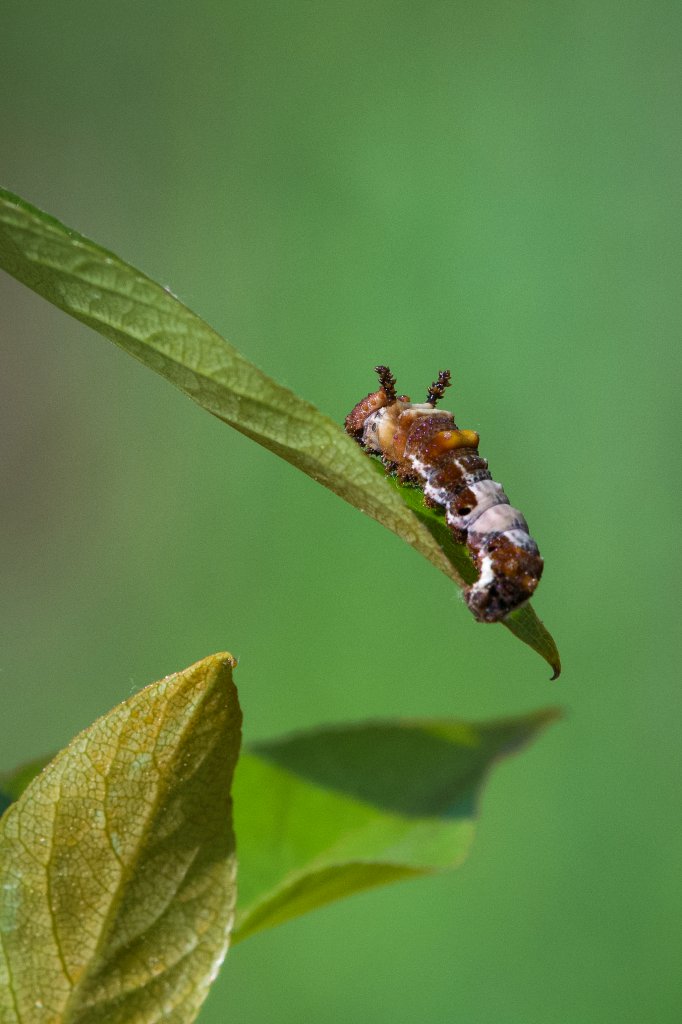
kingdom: Animalia
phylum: Arthropoda
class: Insecta
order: Lepidoptera
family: Nymphalidae
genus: Limenitis
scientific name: Limenitis arthemis
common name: Red-spotted Admiral
